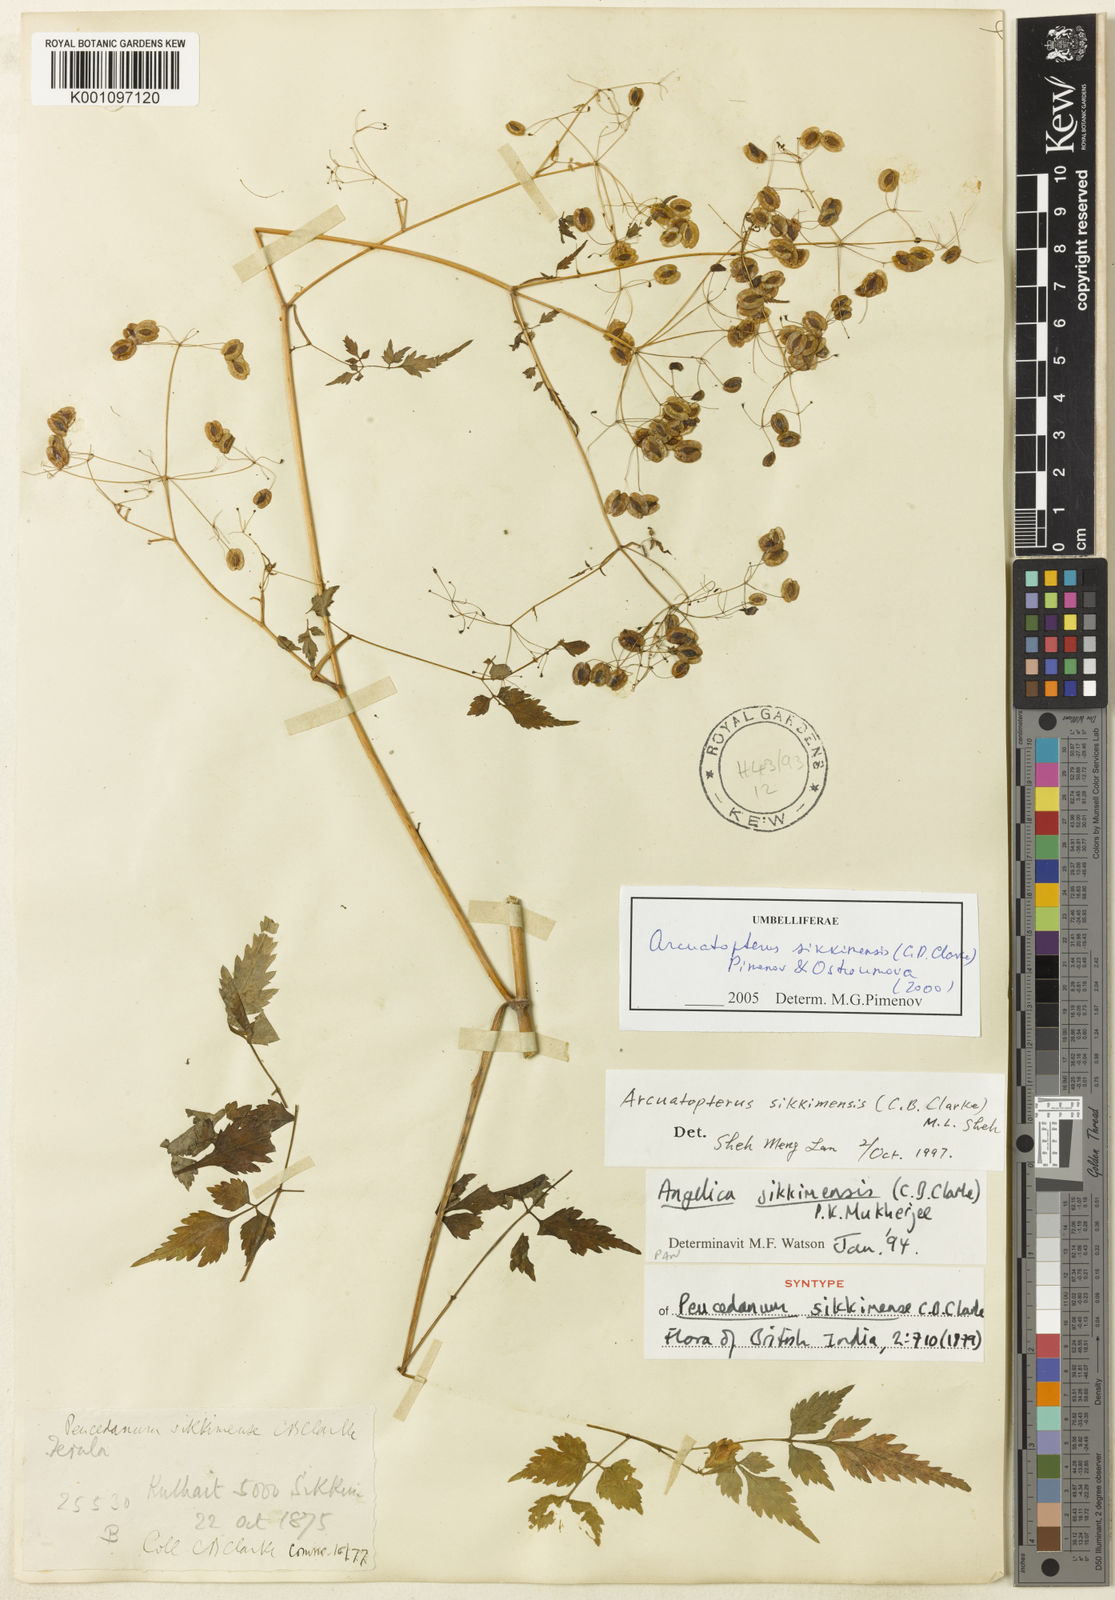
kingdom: Plantae
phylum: Tracheophyta
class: Magnoliopsida
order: Apiales
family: Apiaceae
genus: Arcuatopterus
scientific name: Arcuatopterus sikkimensis
